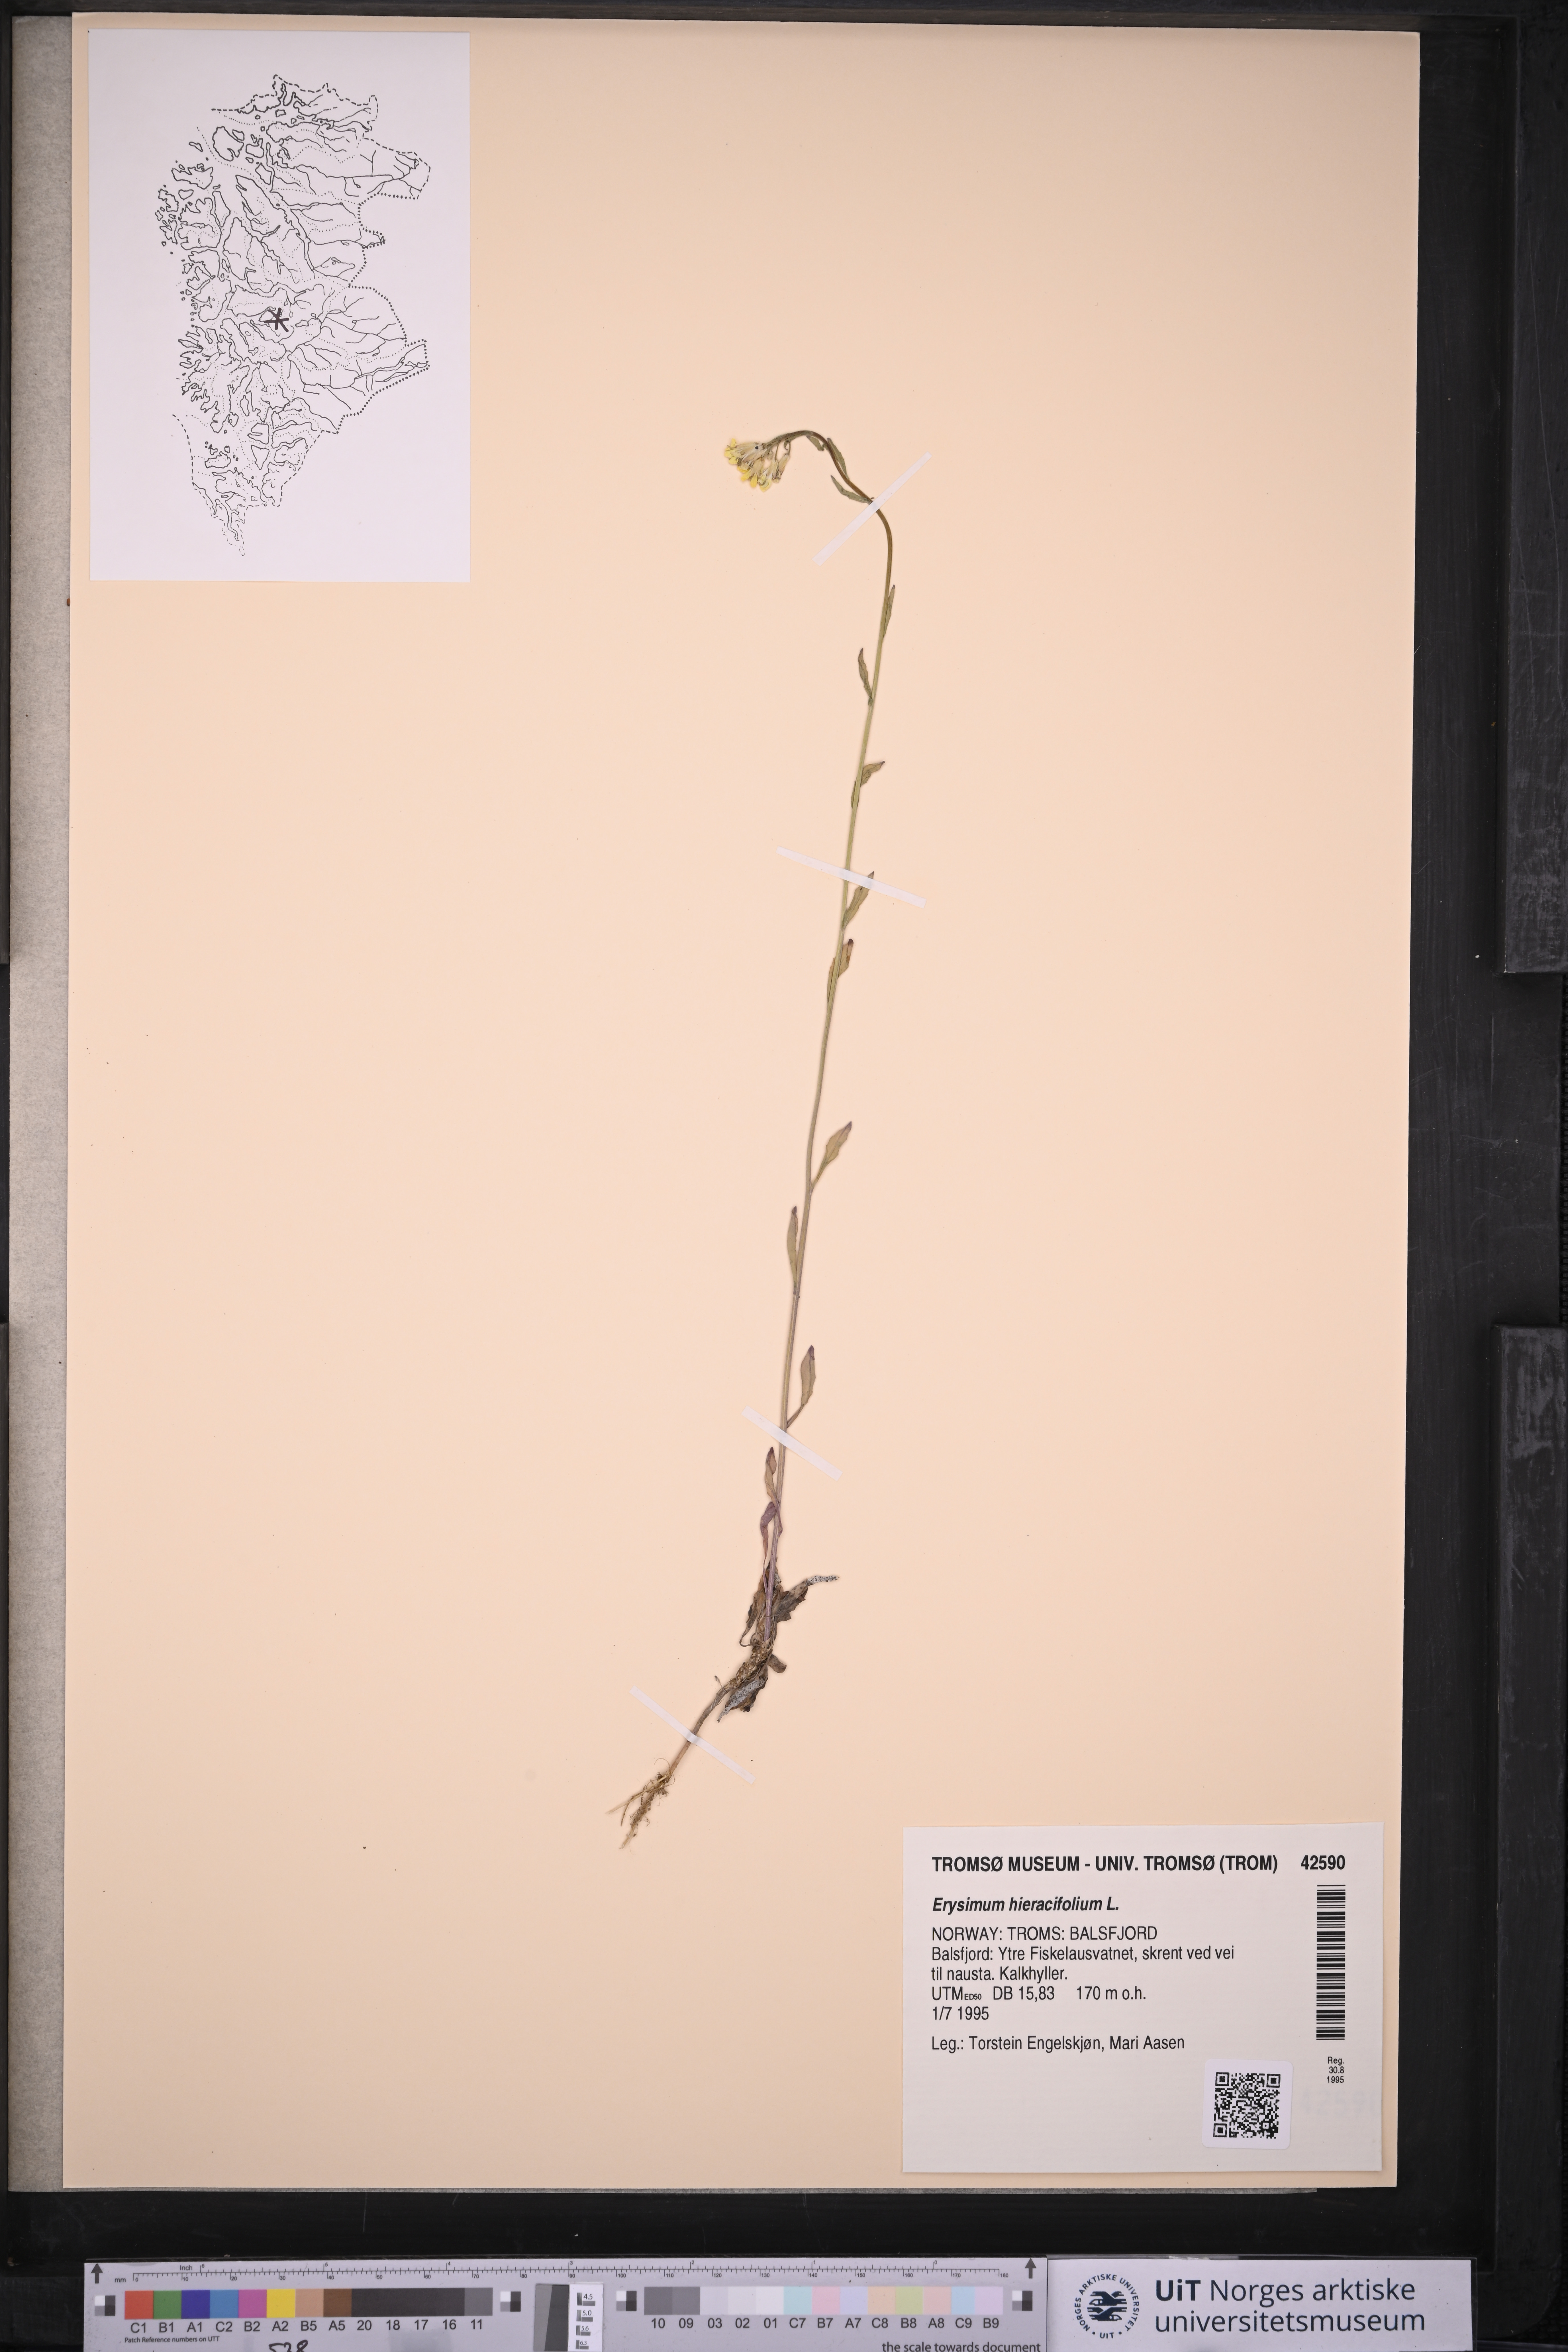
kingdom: Plantae
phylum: Tracheophyta
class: Magnoliopsida
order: Brassicales
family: Brassicaceae
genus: Erysimum
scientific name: Erysimum hieraciifolium
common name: European wallflower
